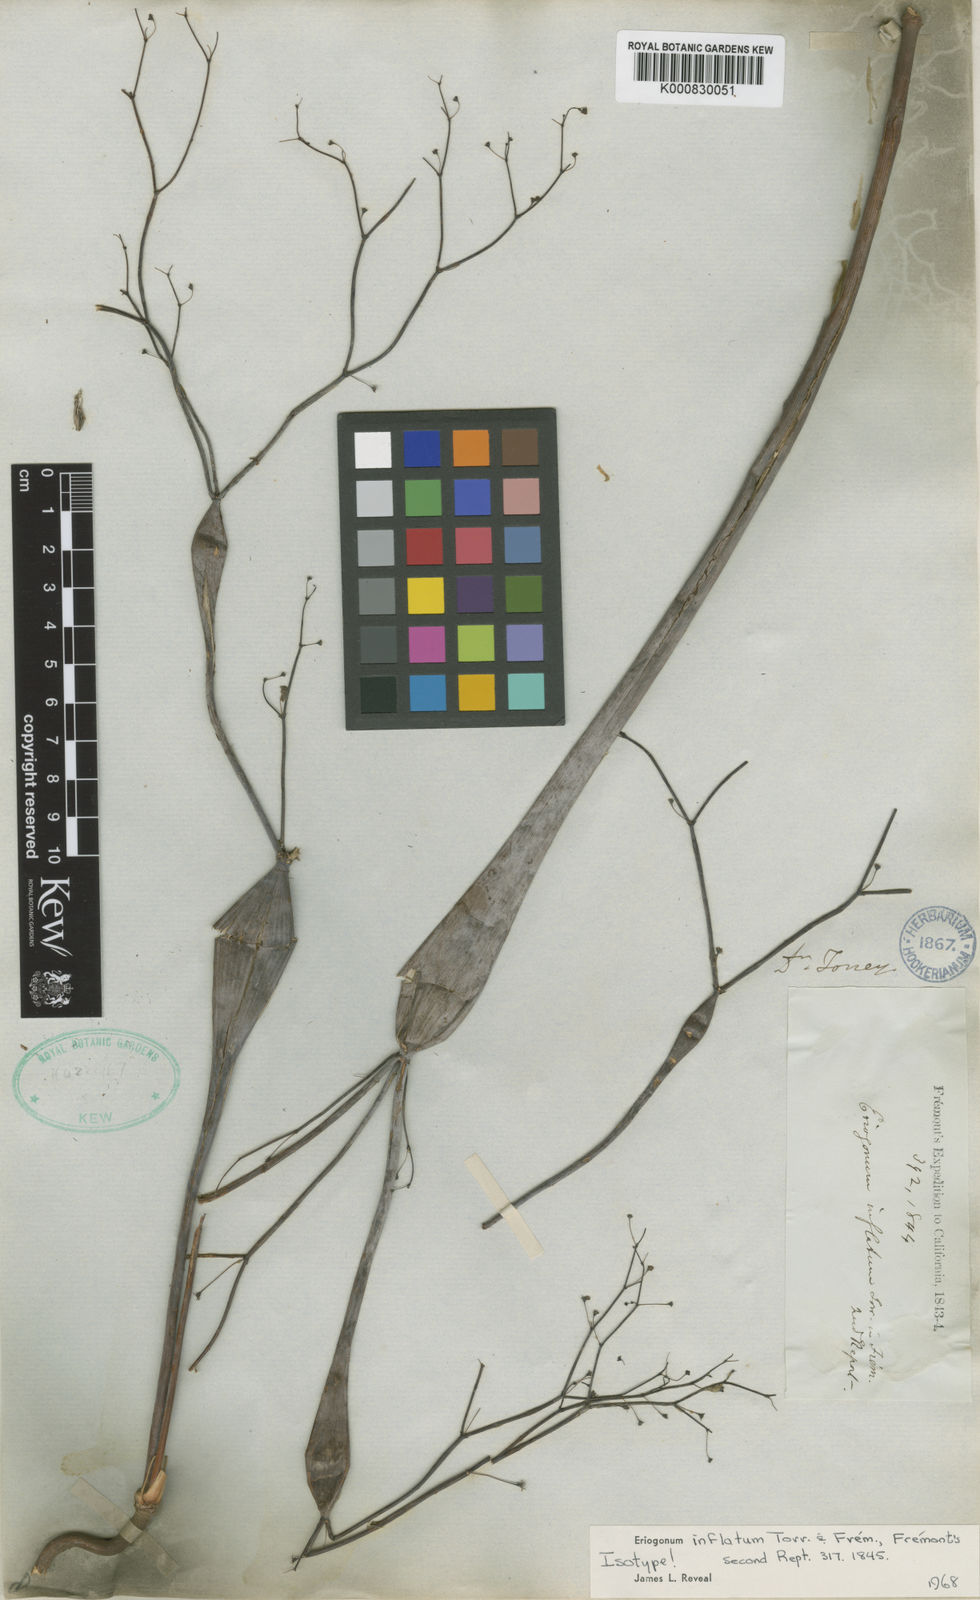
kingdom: Plantae
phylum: Tracheophyta
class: Magnoliopsida
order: Caryophyllales
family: Polygonaceae
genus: Eriogonum
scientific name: Eriogonum
